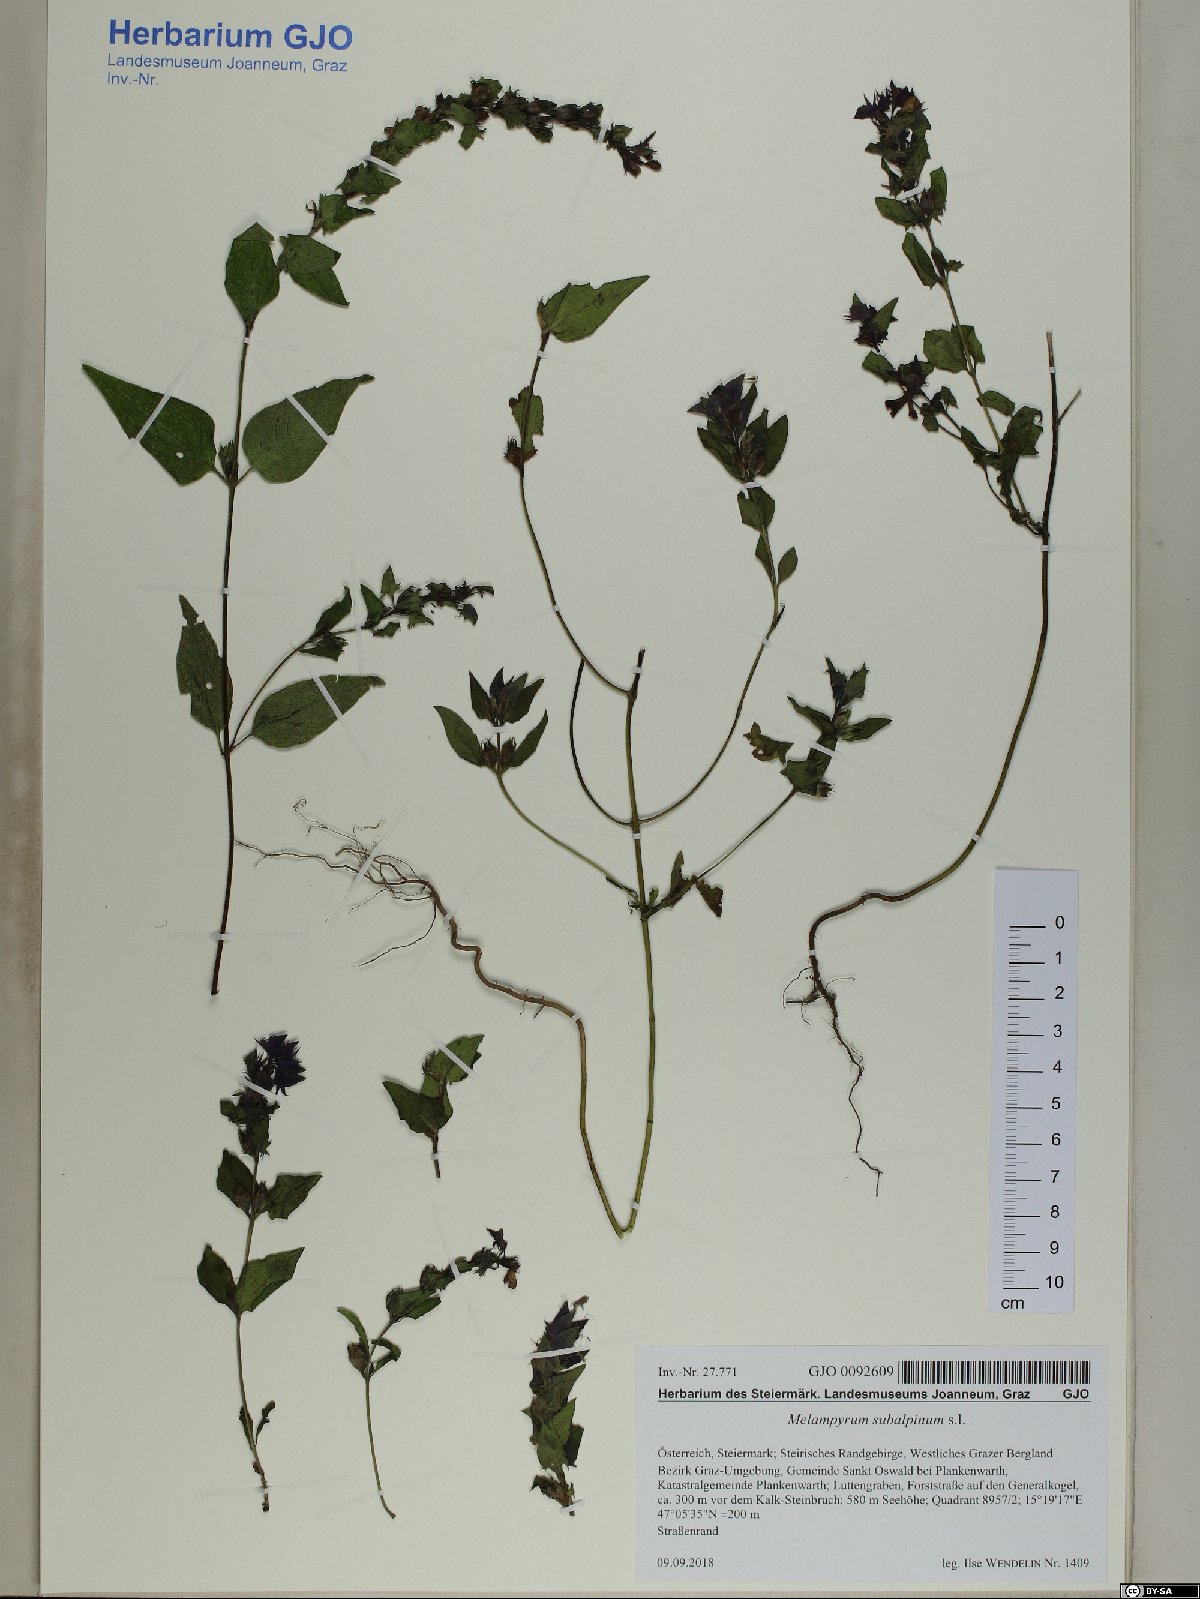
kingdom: Plantae
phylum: Tracheophyta
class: Magnoliopsida
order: Lamiales
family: Orobanchaceae
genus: Melampyrum
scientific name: Melampyrum nemorosum
